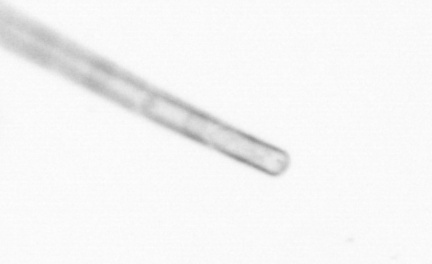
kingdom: Chromista
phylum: Ochrophyta
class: Bacillariophyceae
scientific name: Bacillariophyceae
